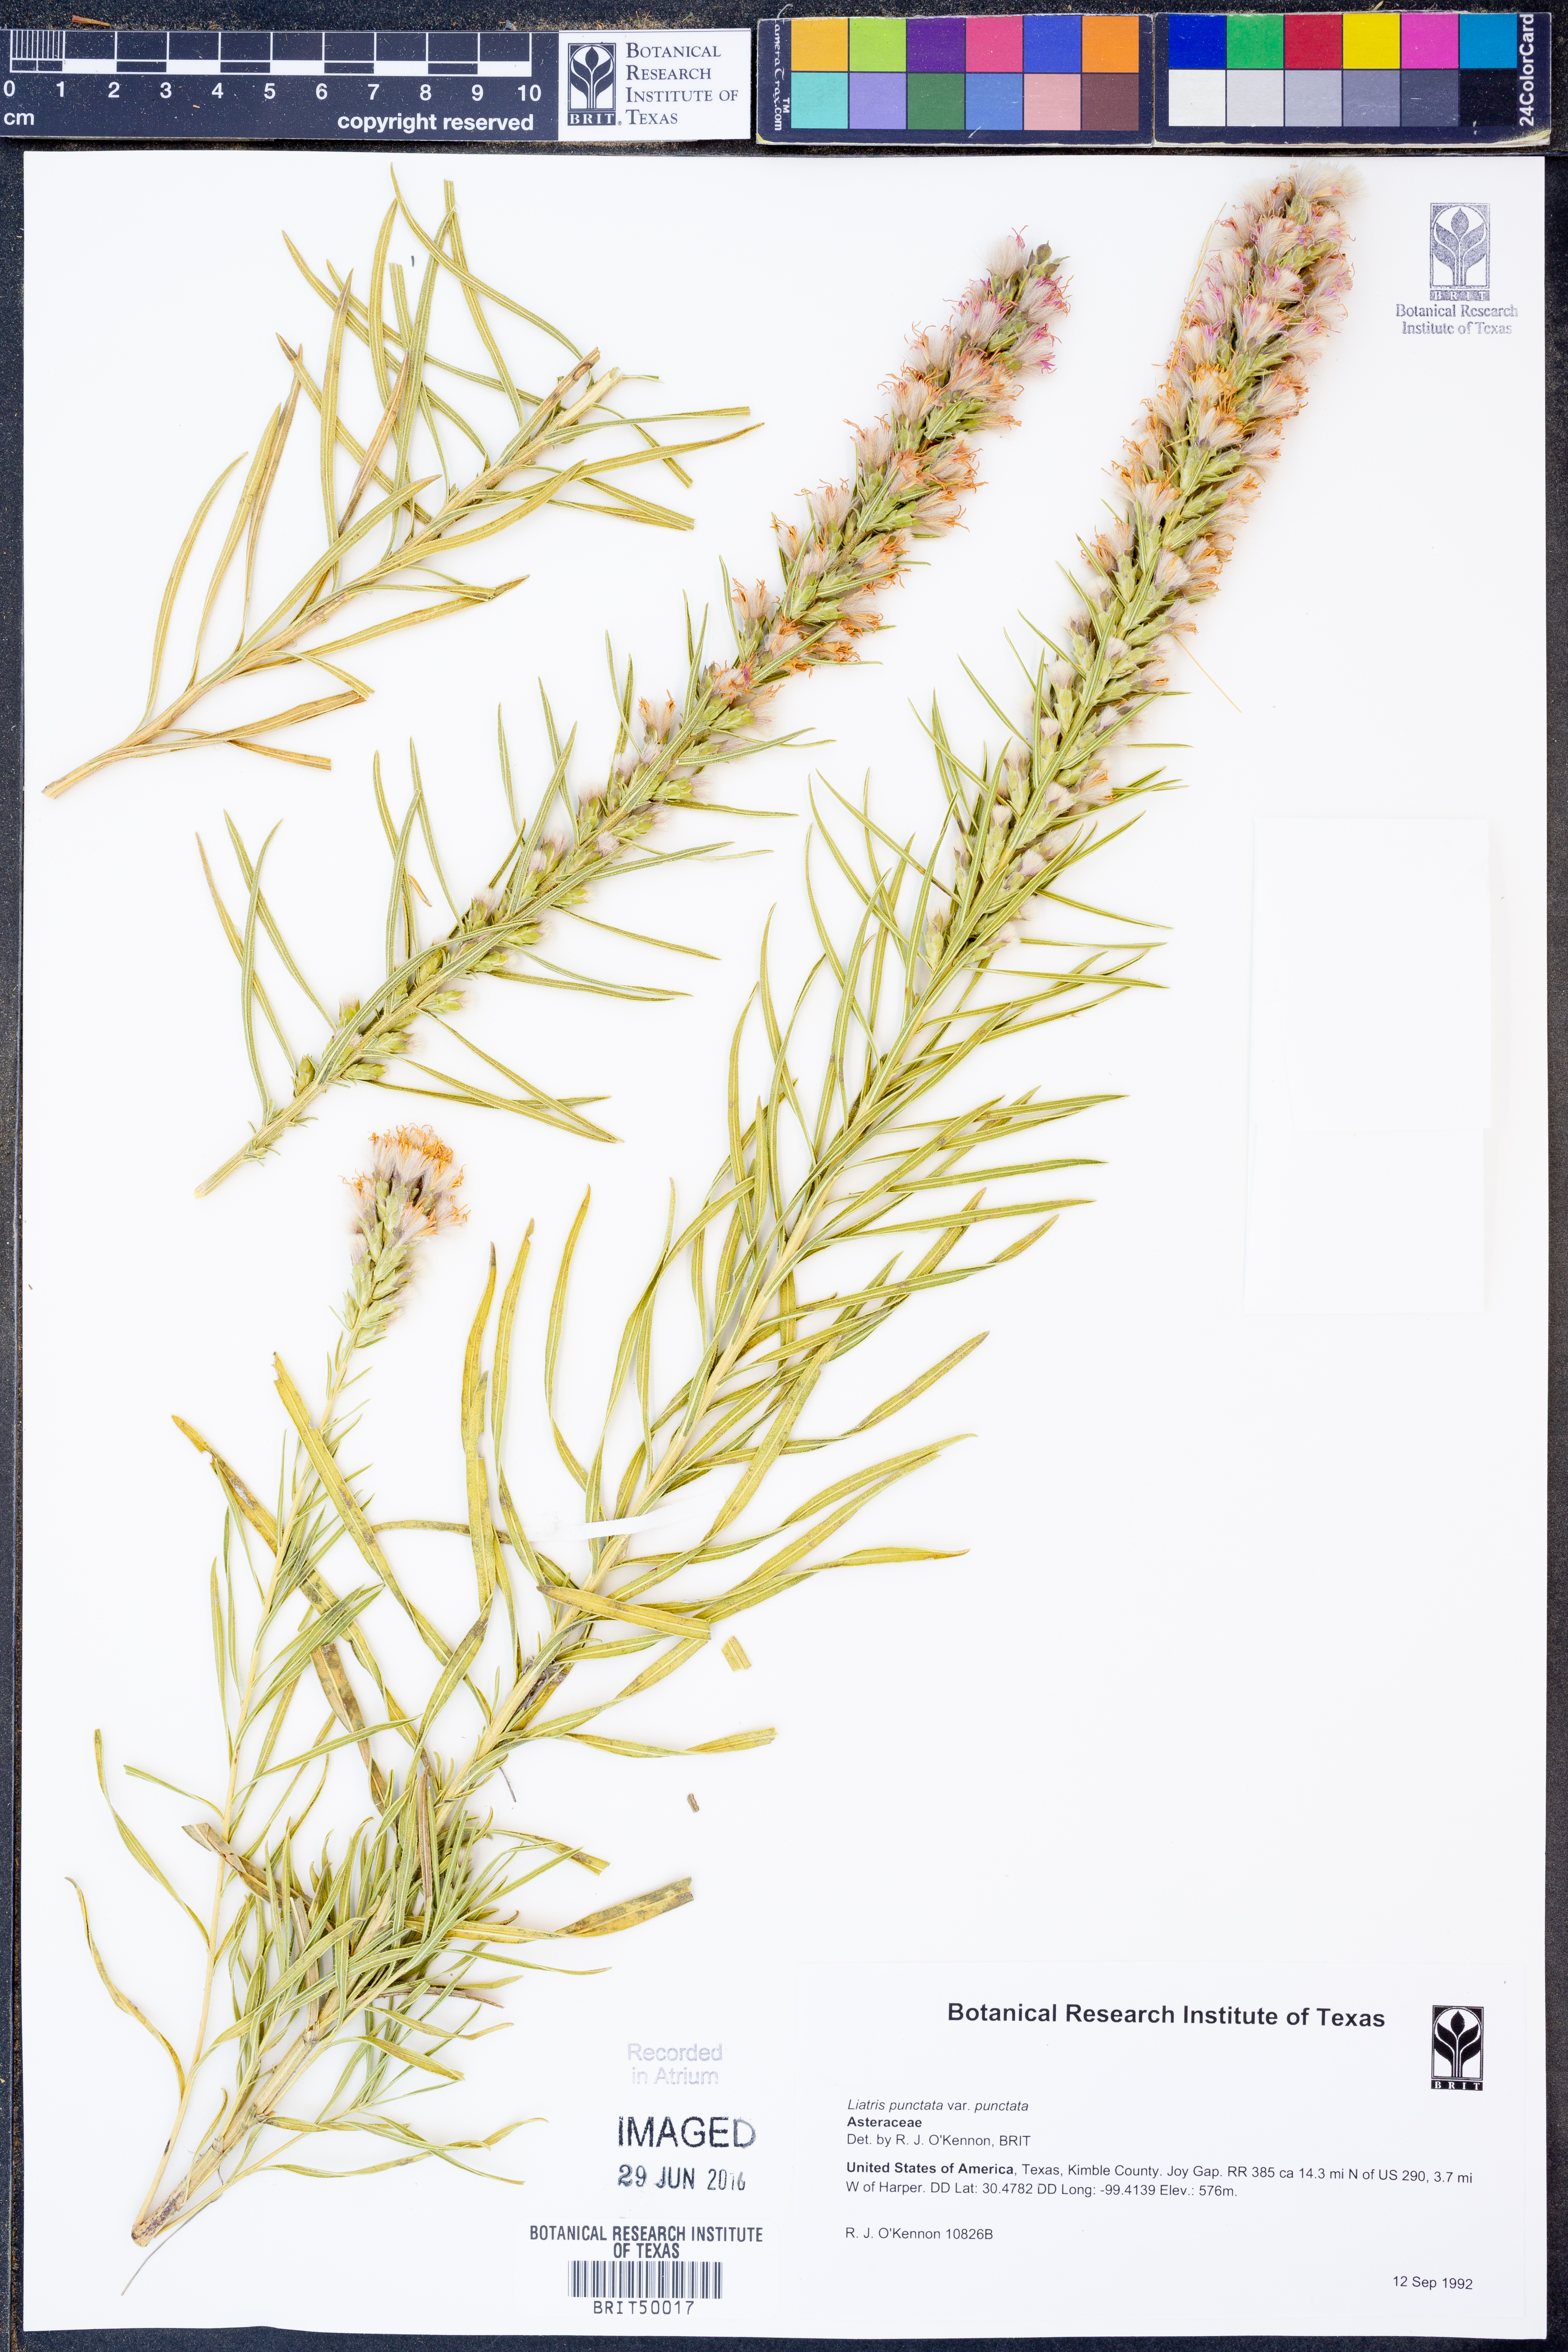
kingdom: Plantae
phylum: Tracheophyta
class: Magnoliopsida
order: Asterales
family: Asteraceae
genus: Liatris
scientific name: Liatris punctata
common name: Dotted gayfeather
